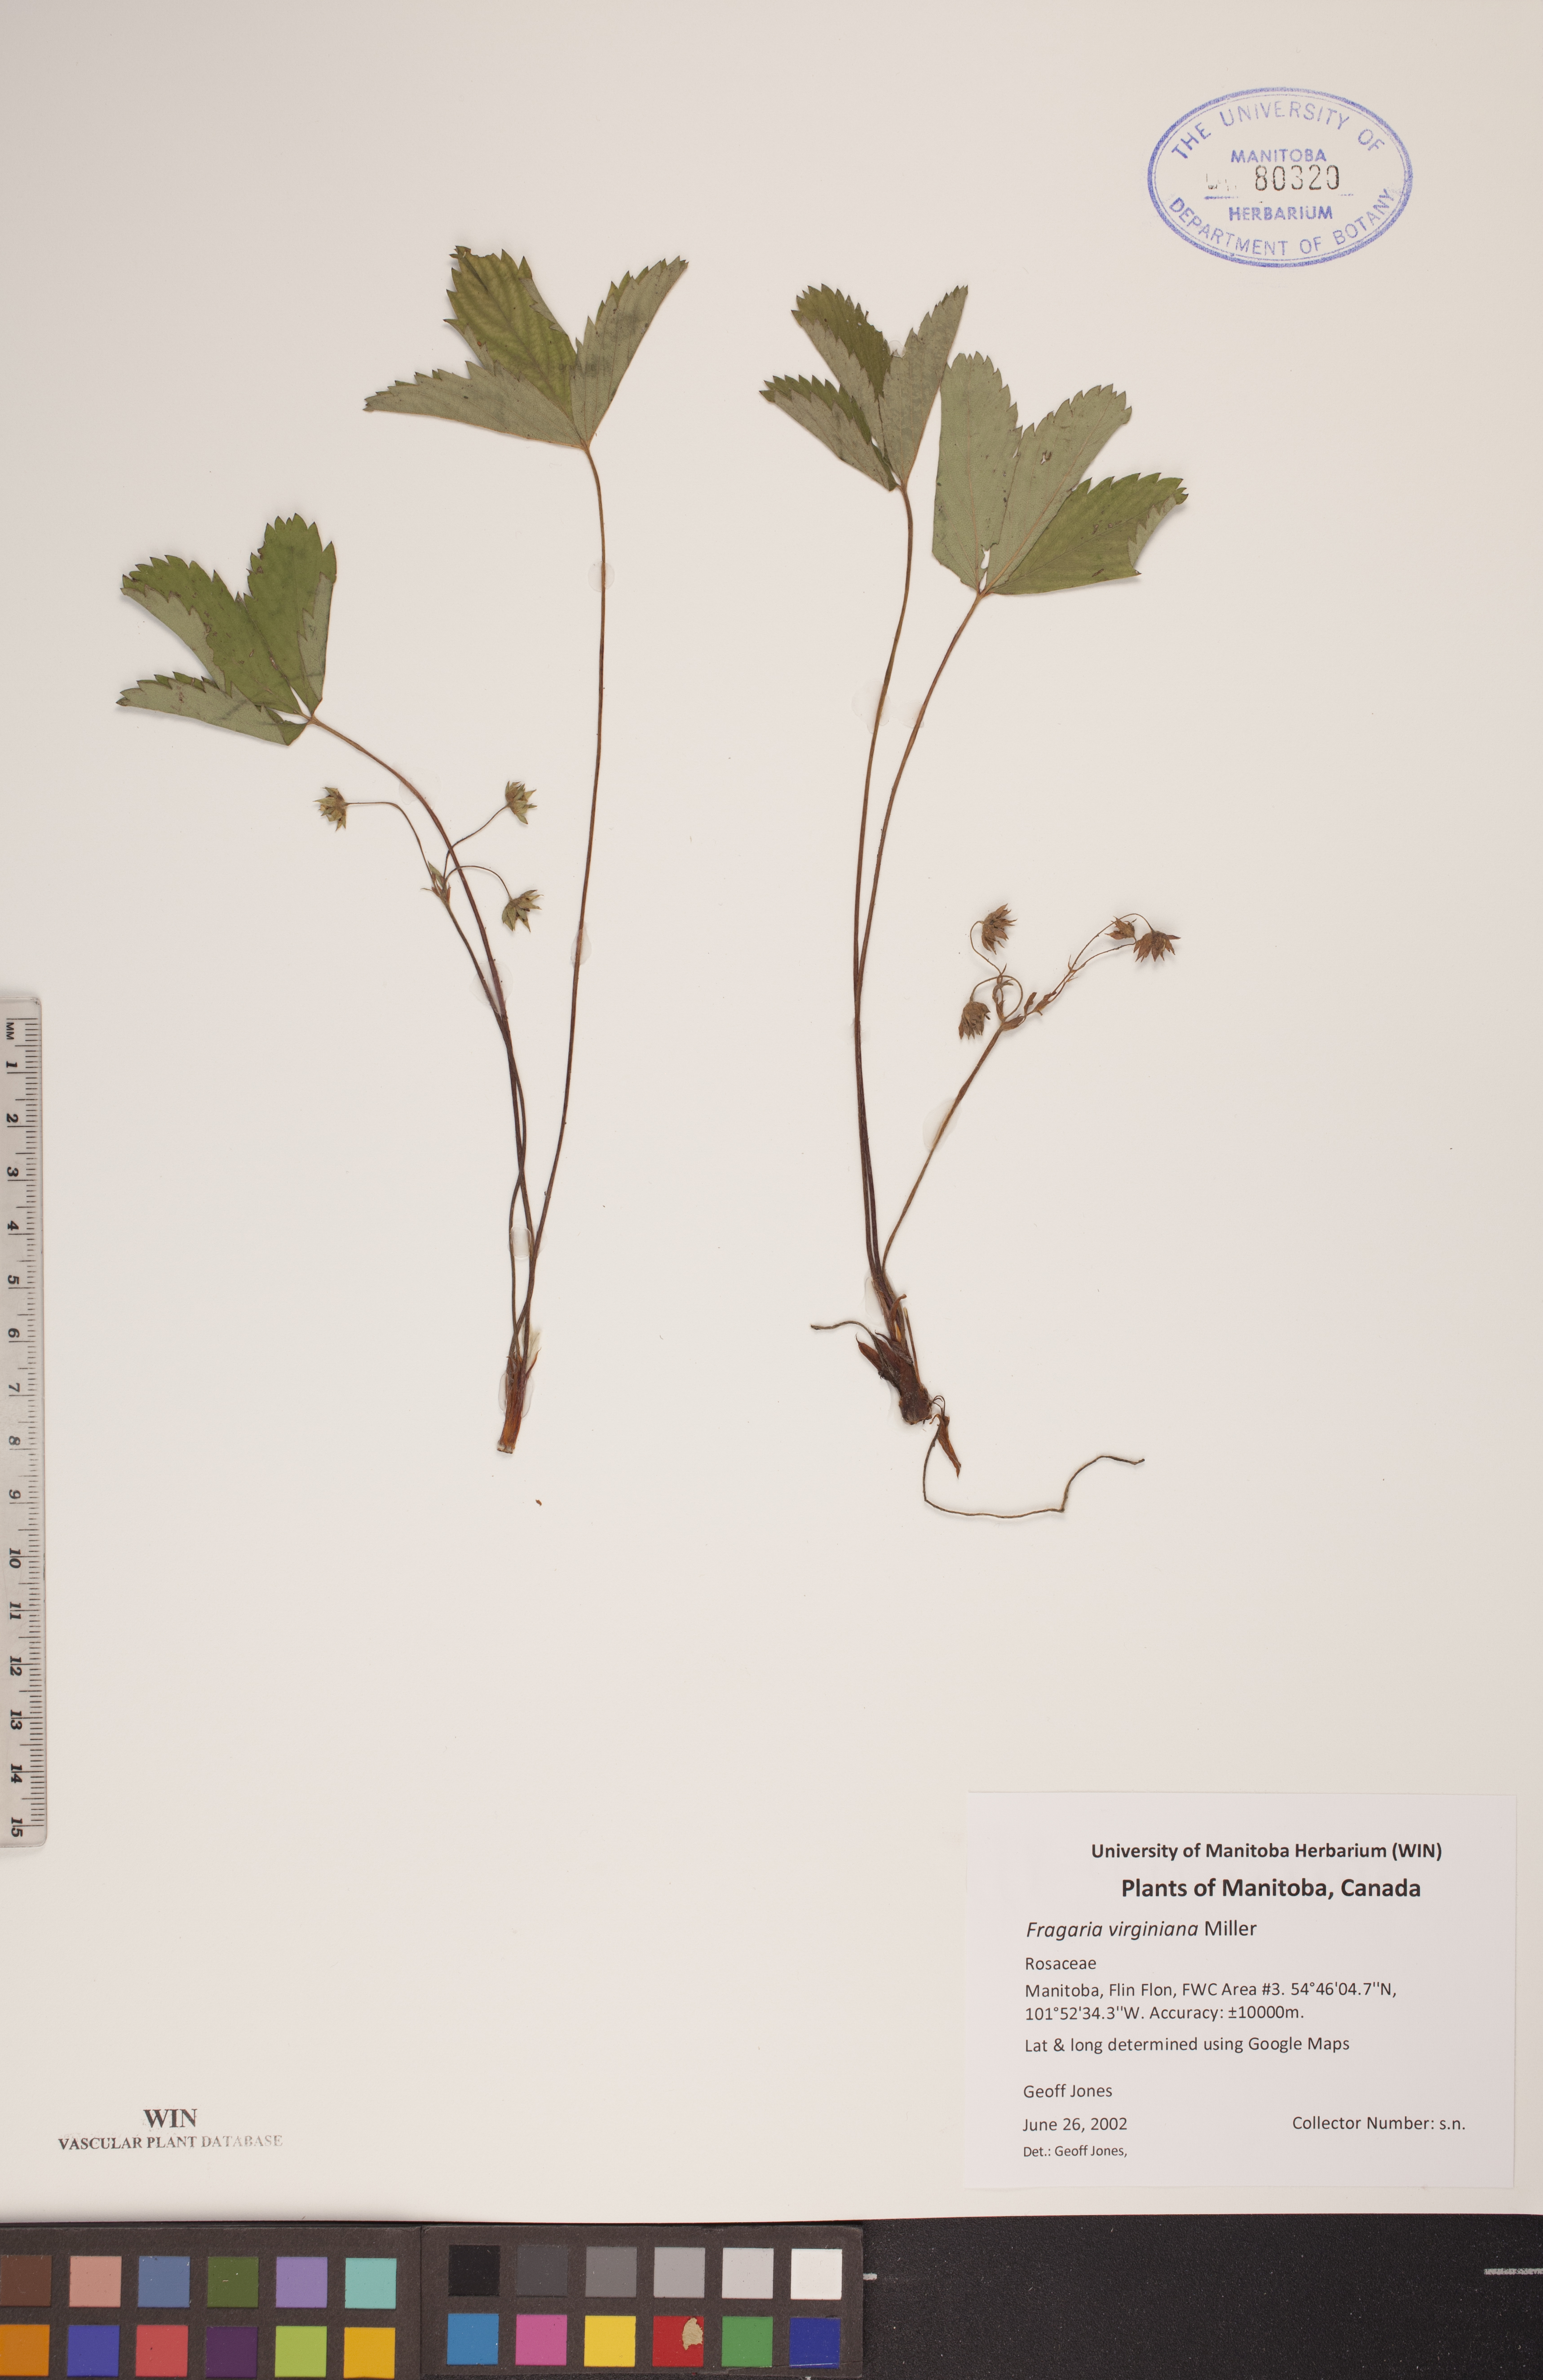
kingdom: Plantae
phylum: Tracheophyta
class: Magnoliopsida
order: Rosales
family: Rosaceae
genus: Fragaria
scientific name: Fragaria virginiana
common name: Thickleaved wild strawberry
